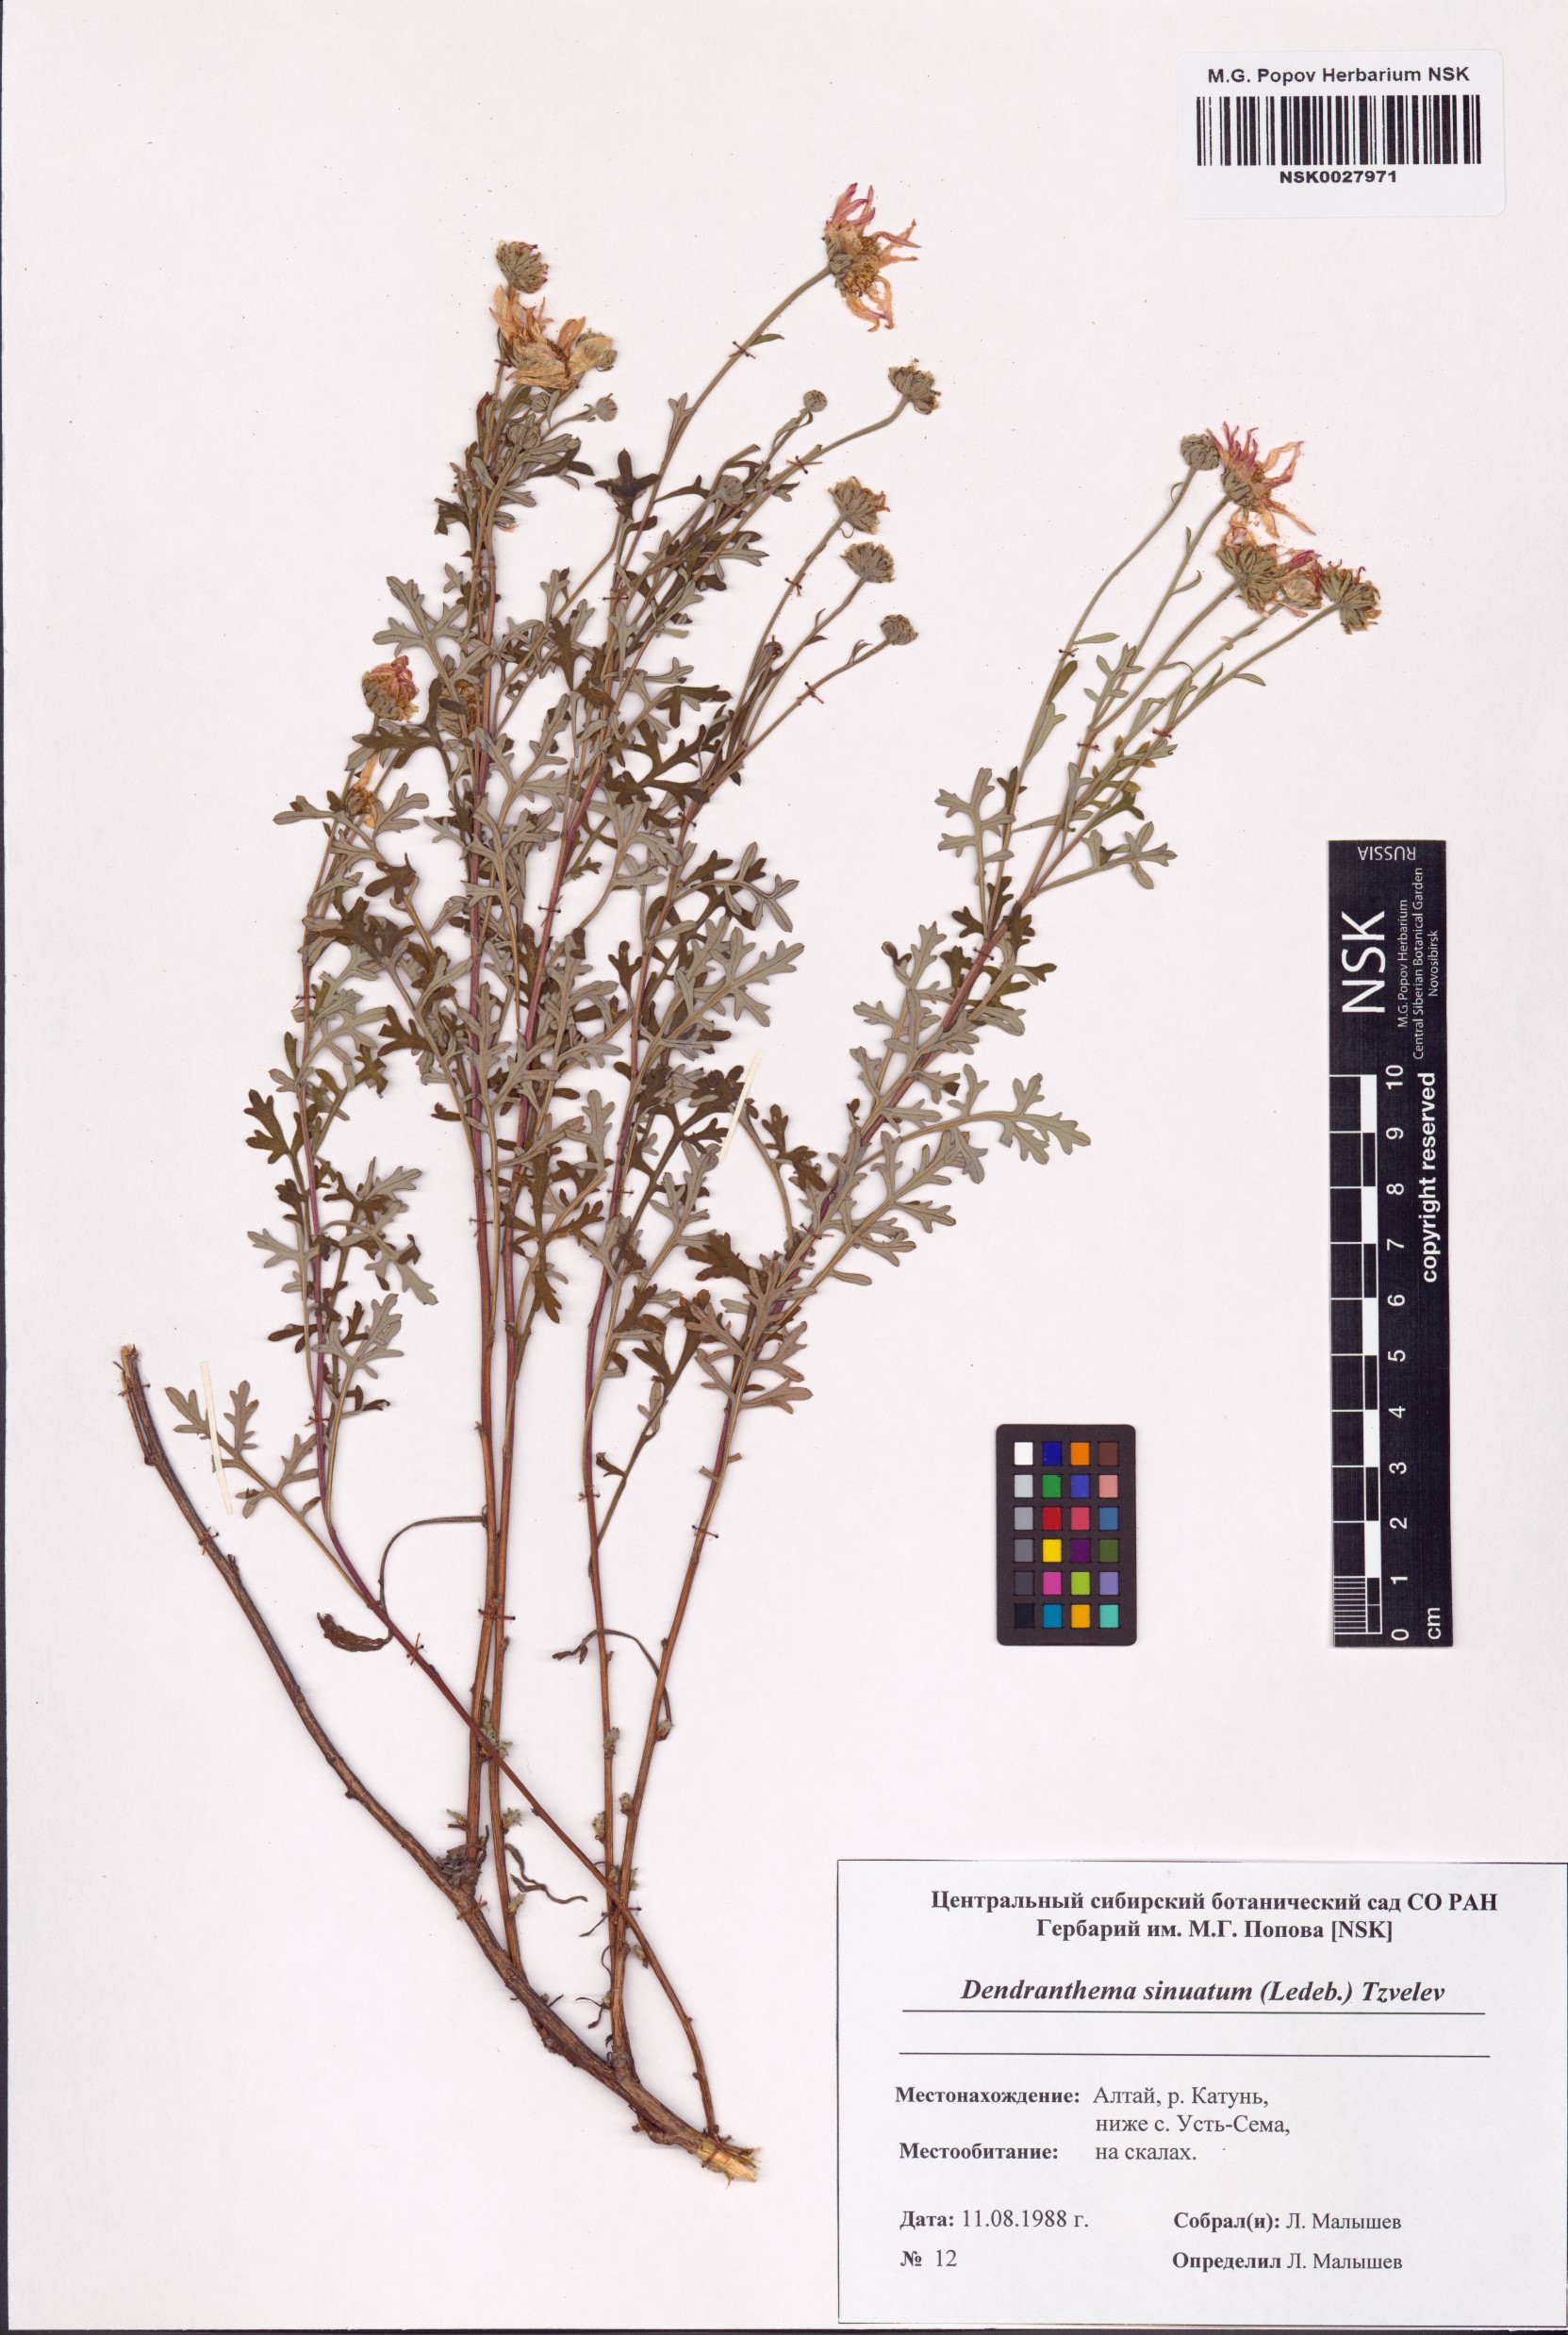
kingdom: Plantae
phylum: Tracheophyta
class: Magnoliopsida
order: Asterales
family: Asteraceae
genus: Chrysanthemum
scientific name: Chrysanthemum sinuatum
